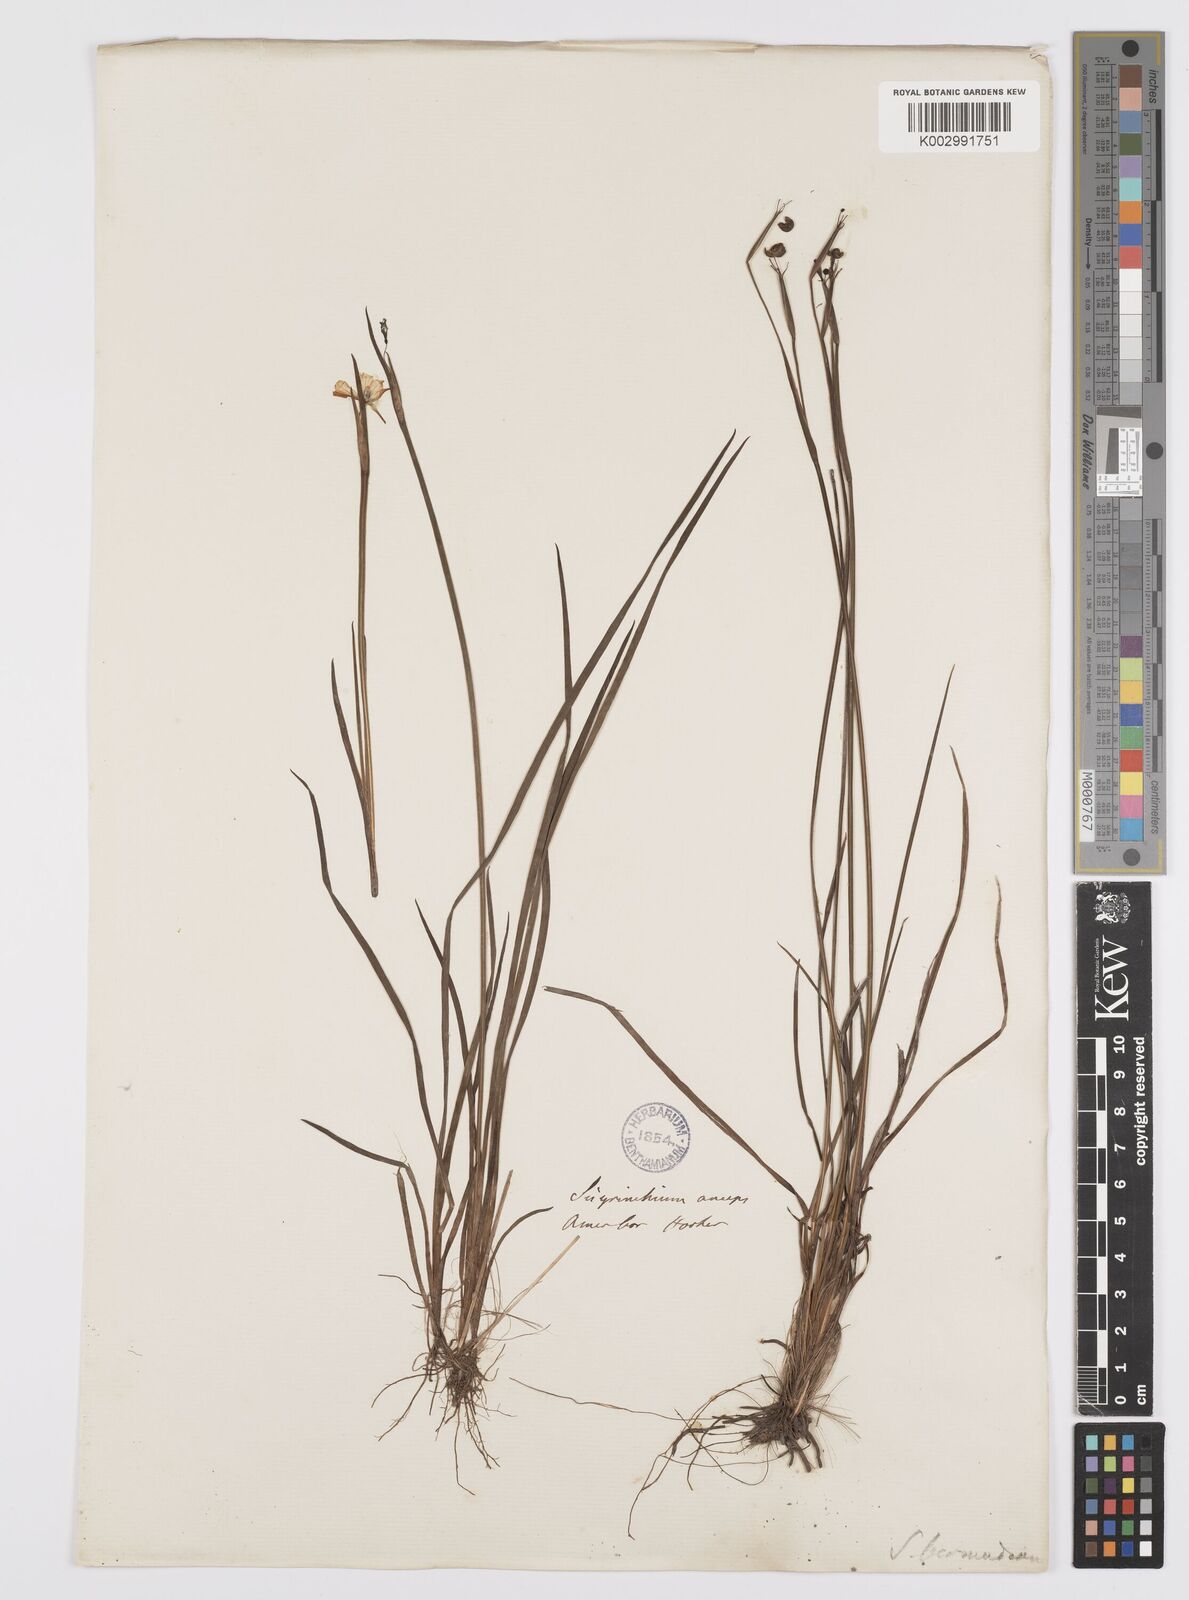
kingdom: Plantae
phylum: Tracheophyta
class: Liliopsida
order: Asparagales
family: Iridaceae
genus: Sisyrinchium
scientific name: Sisyrinchium bermudiana
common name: Blue-eyed-grass
